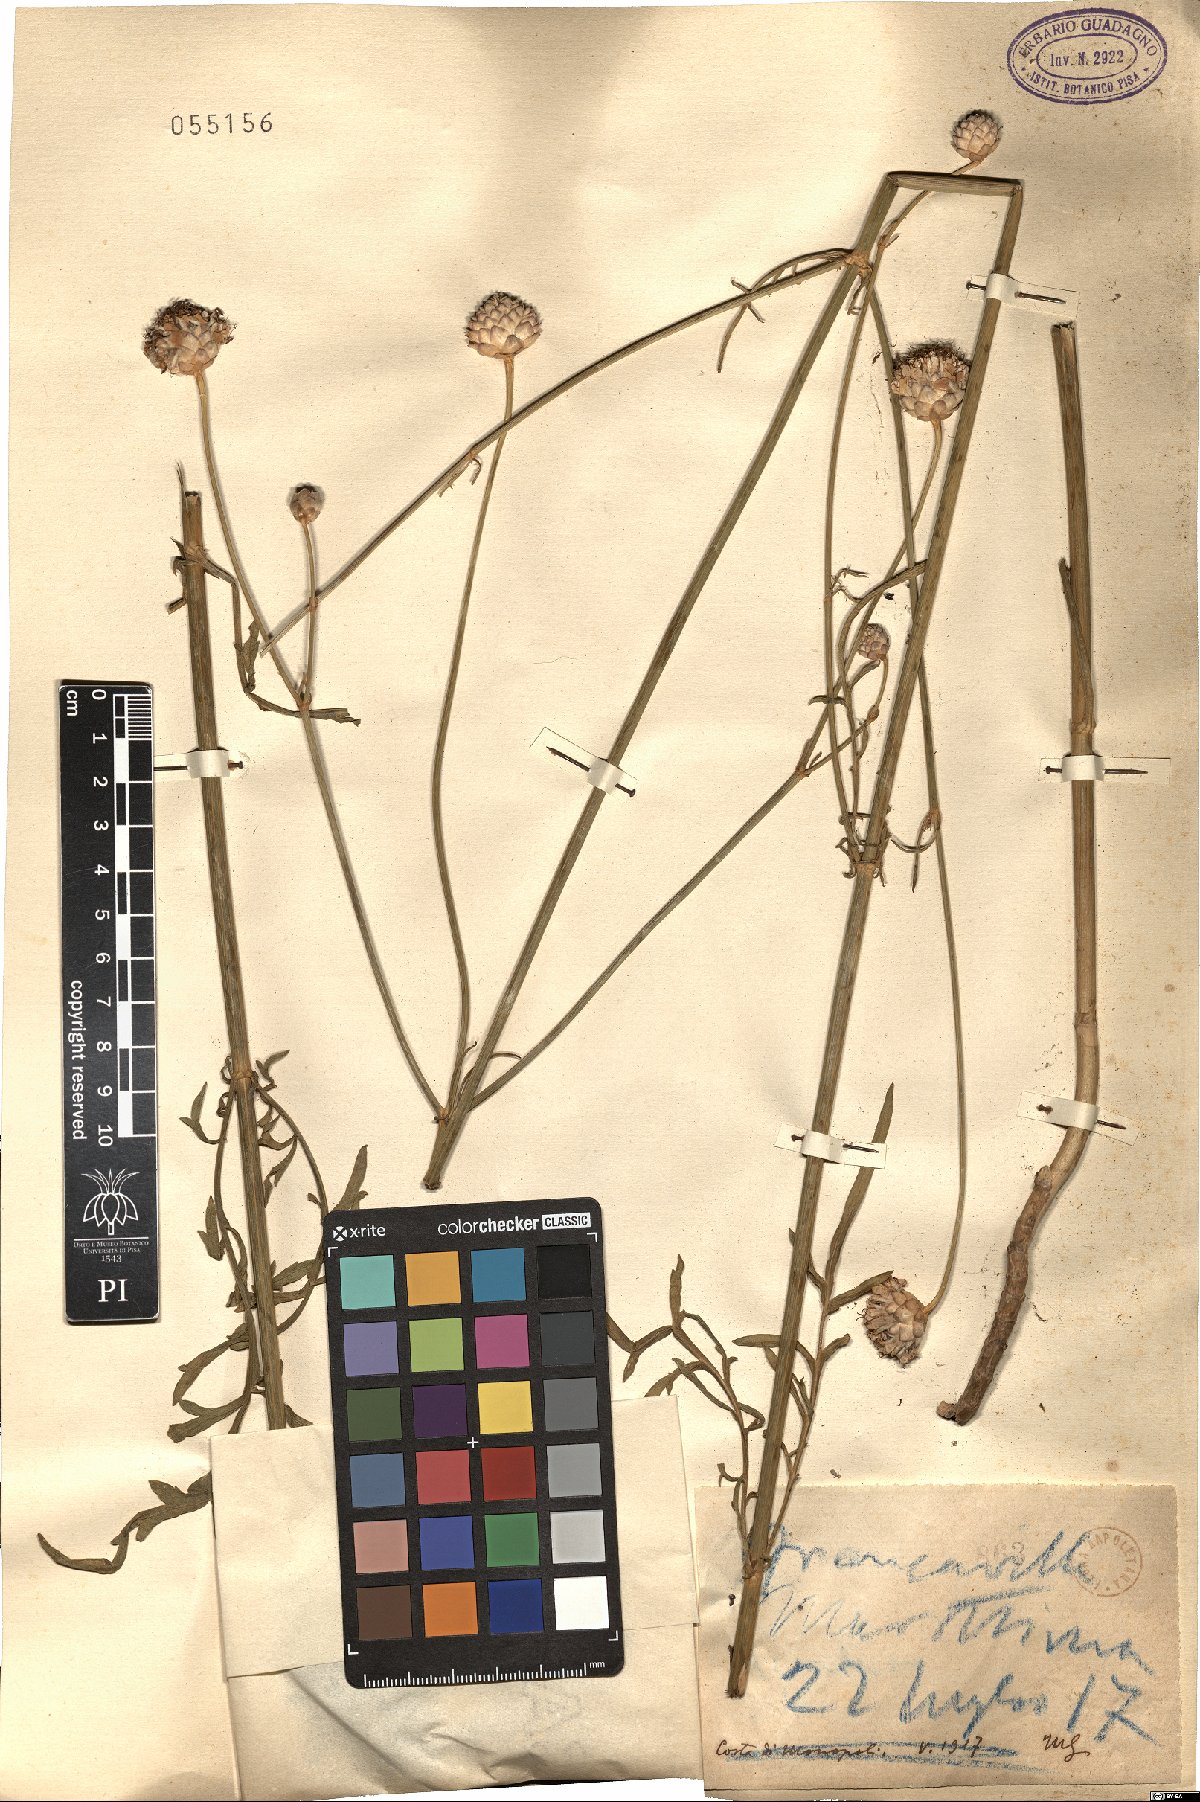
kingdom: Plantae
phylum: Tracheophyta
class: Magnoliopsida
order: Dipsacales
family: Caprifoliaceae
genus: Cephalaria
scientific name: Cephalaria
